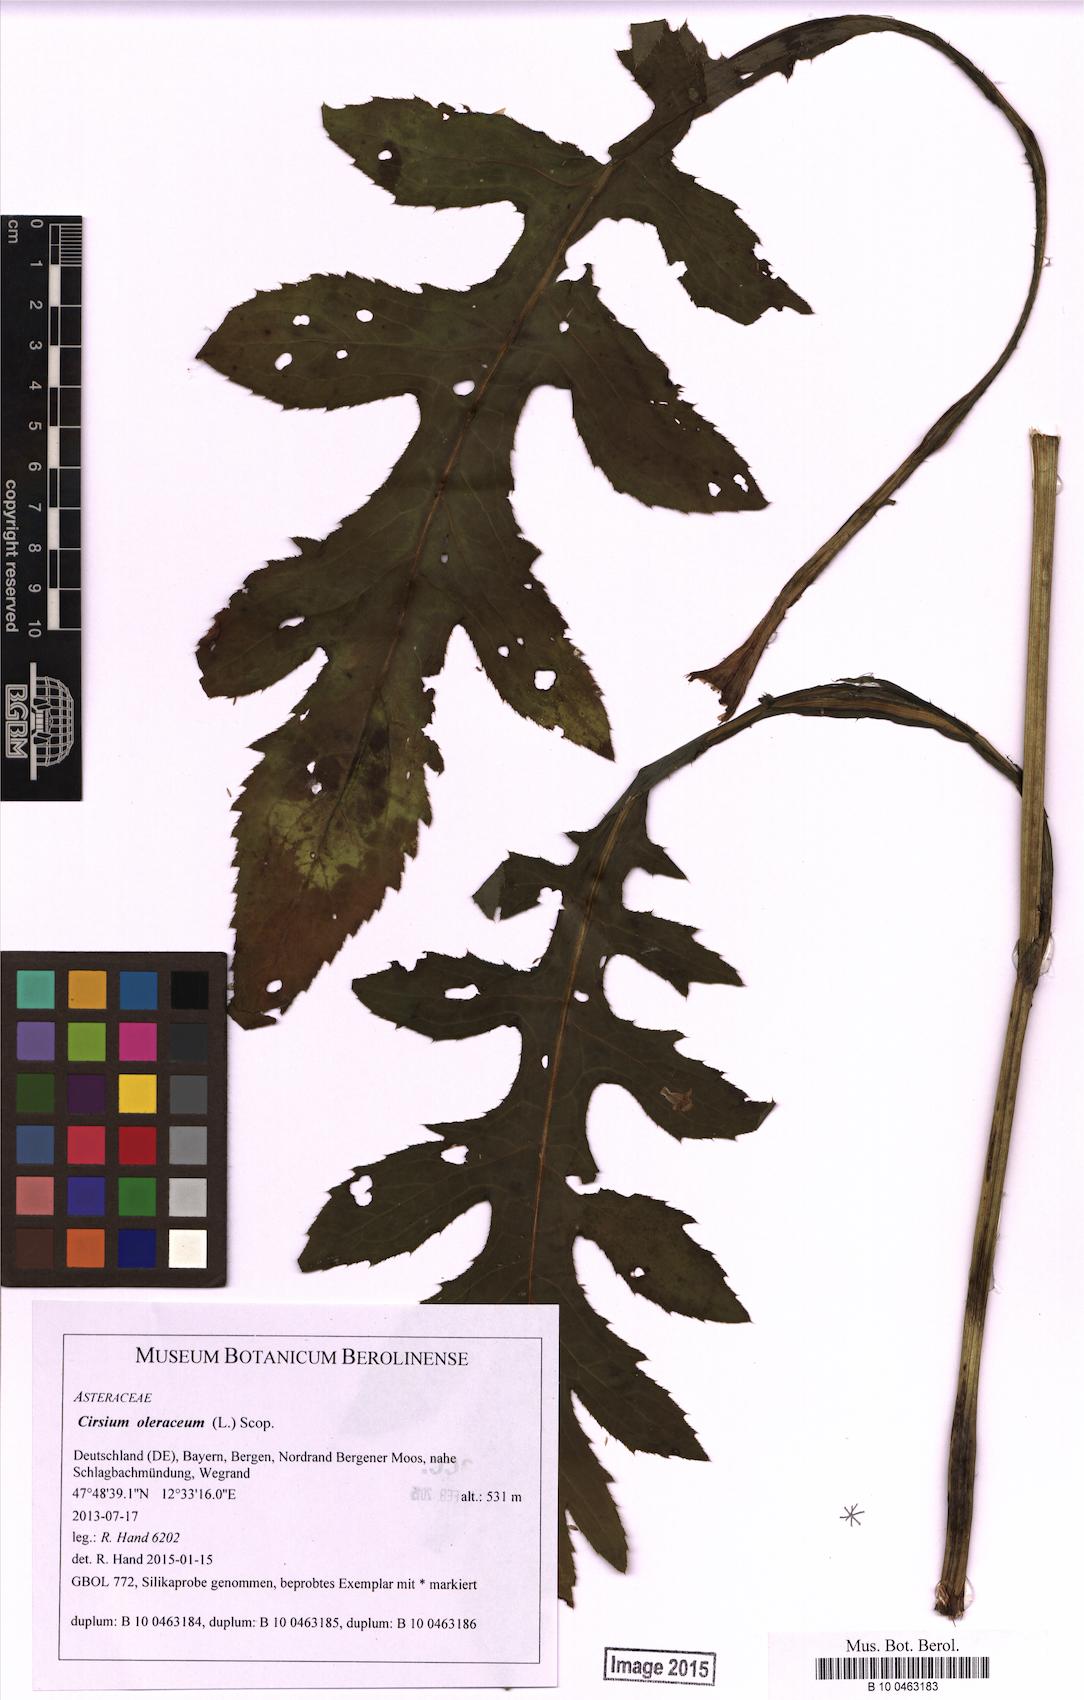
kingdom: Plantae
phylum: Tracheophyta
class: Magnoliopsida
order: Asterales
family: Asteraceae
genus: Cirsium
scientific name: Cirsium oleraceum
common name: Cabbage thistle
